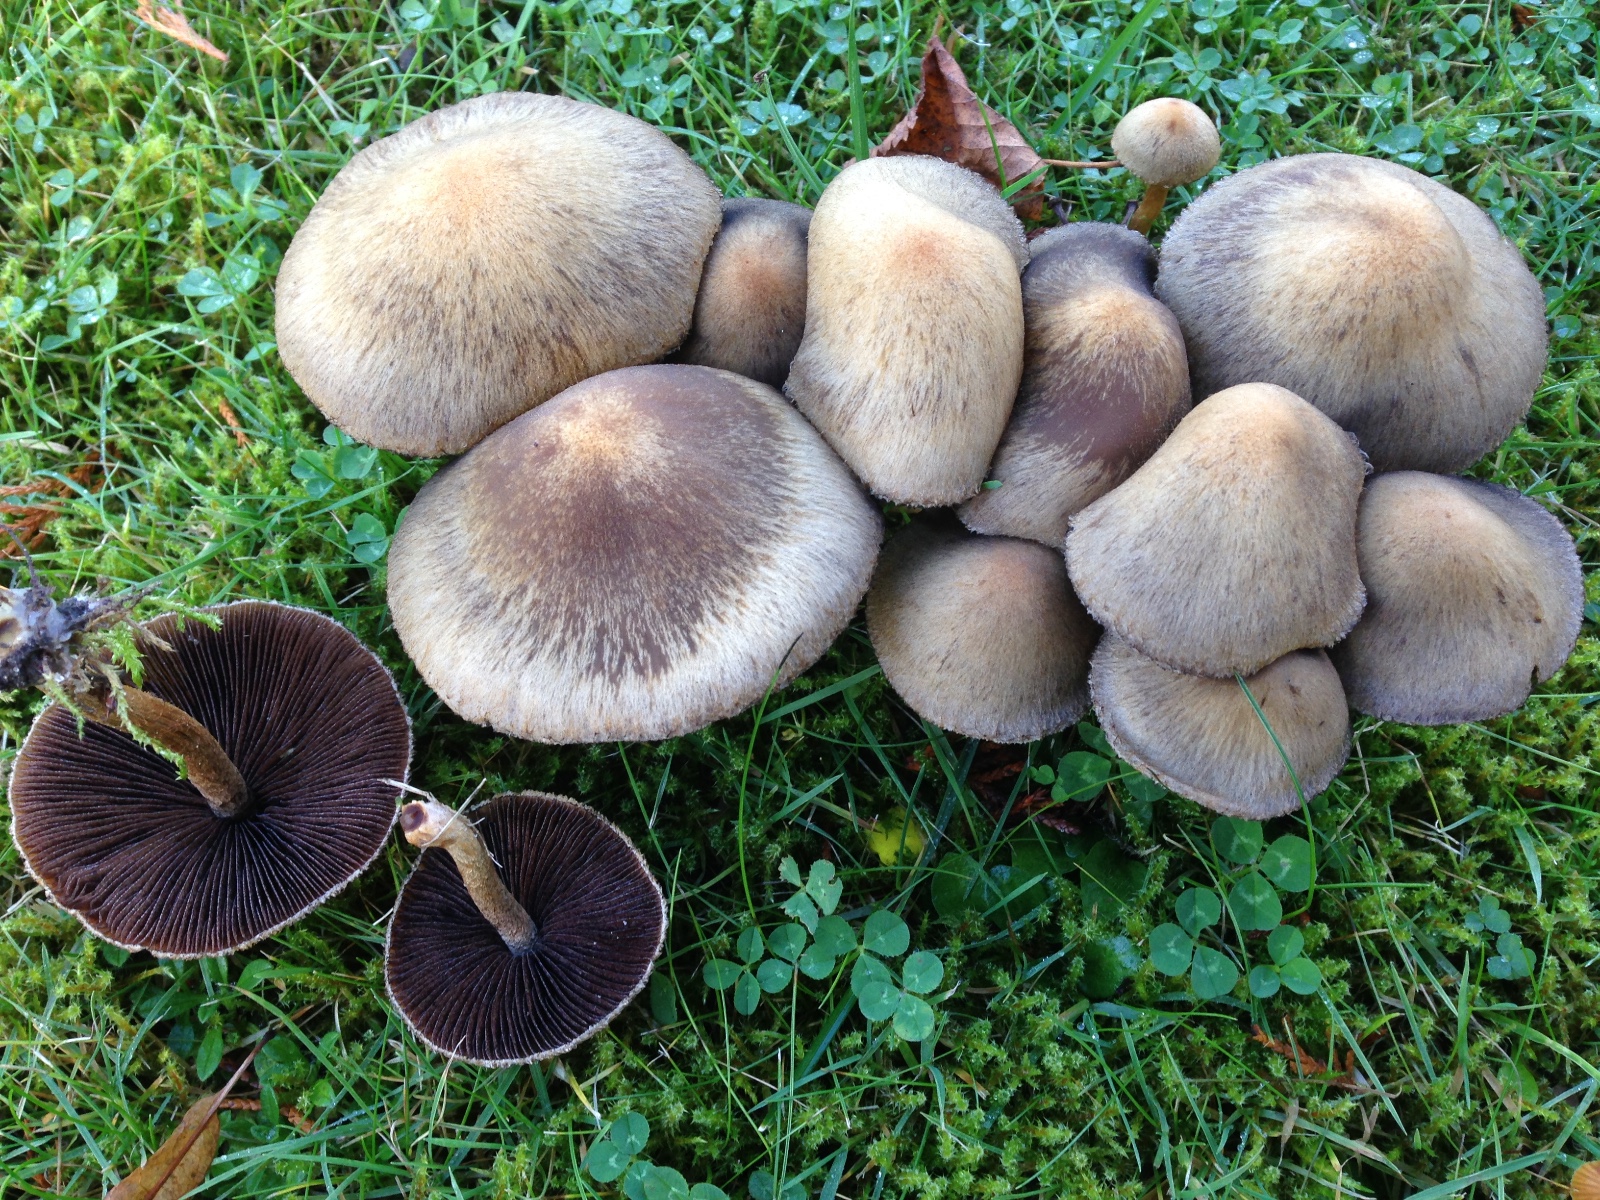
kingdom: Fungi
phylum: Basidiomycota
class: Agaricomycetes
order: Agaricales
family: Psathyrellaceae
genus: Lacrymaria
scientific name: Lacrymaria lacrymabunda
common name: grædende mørkhat
